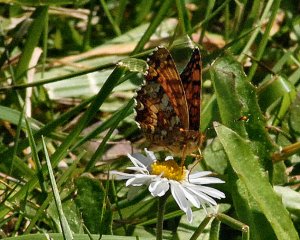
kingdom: Animalia
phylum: Arthropoda
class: Insecta
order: Lepidoptera
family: Nymphalidae
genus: Eresia
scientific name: Eresia aveyrona
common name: Mylitta Crescent
